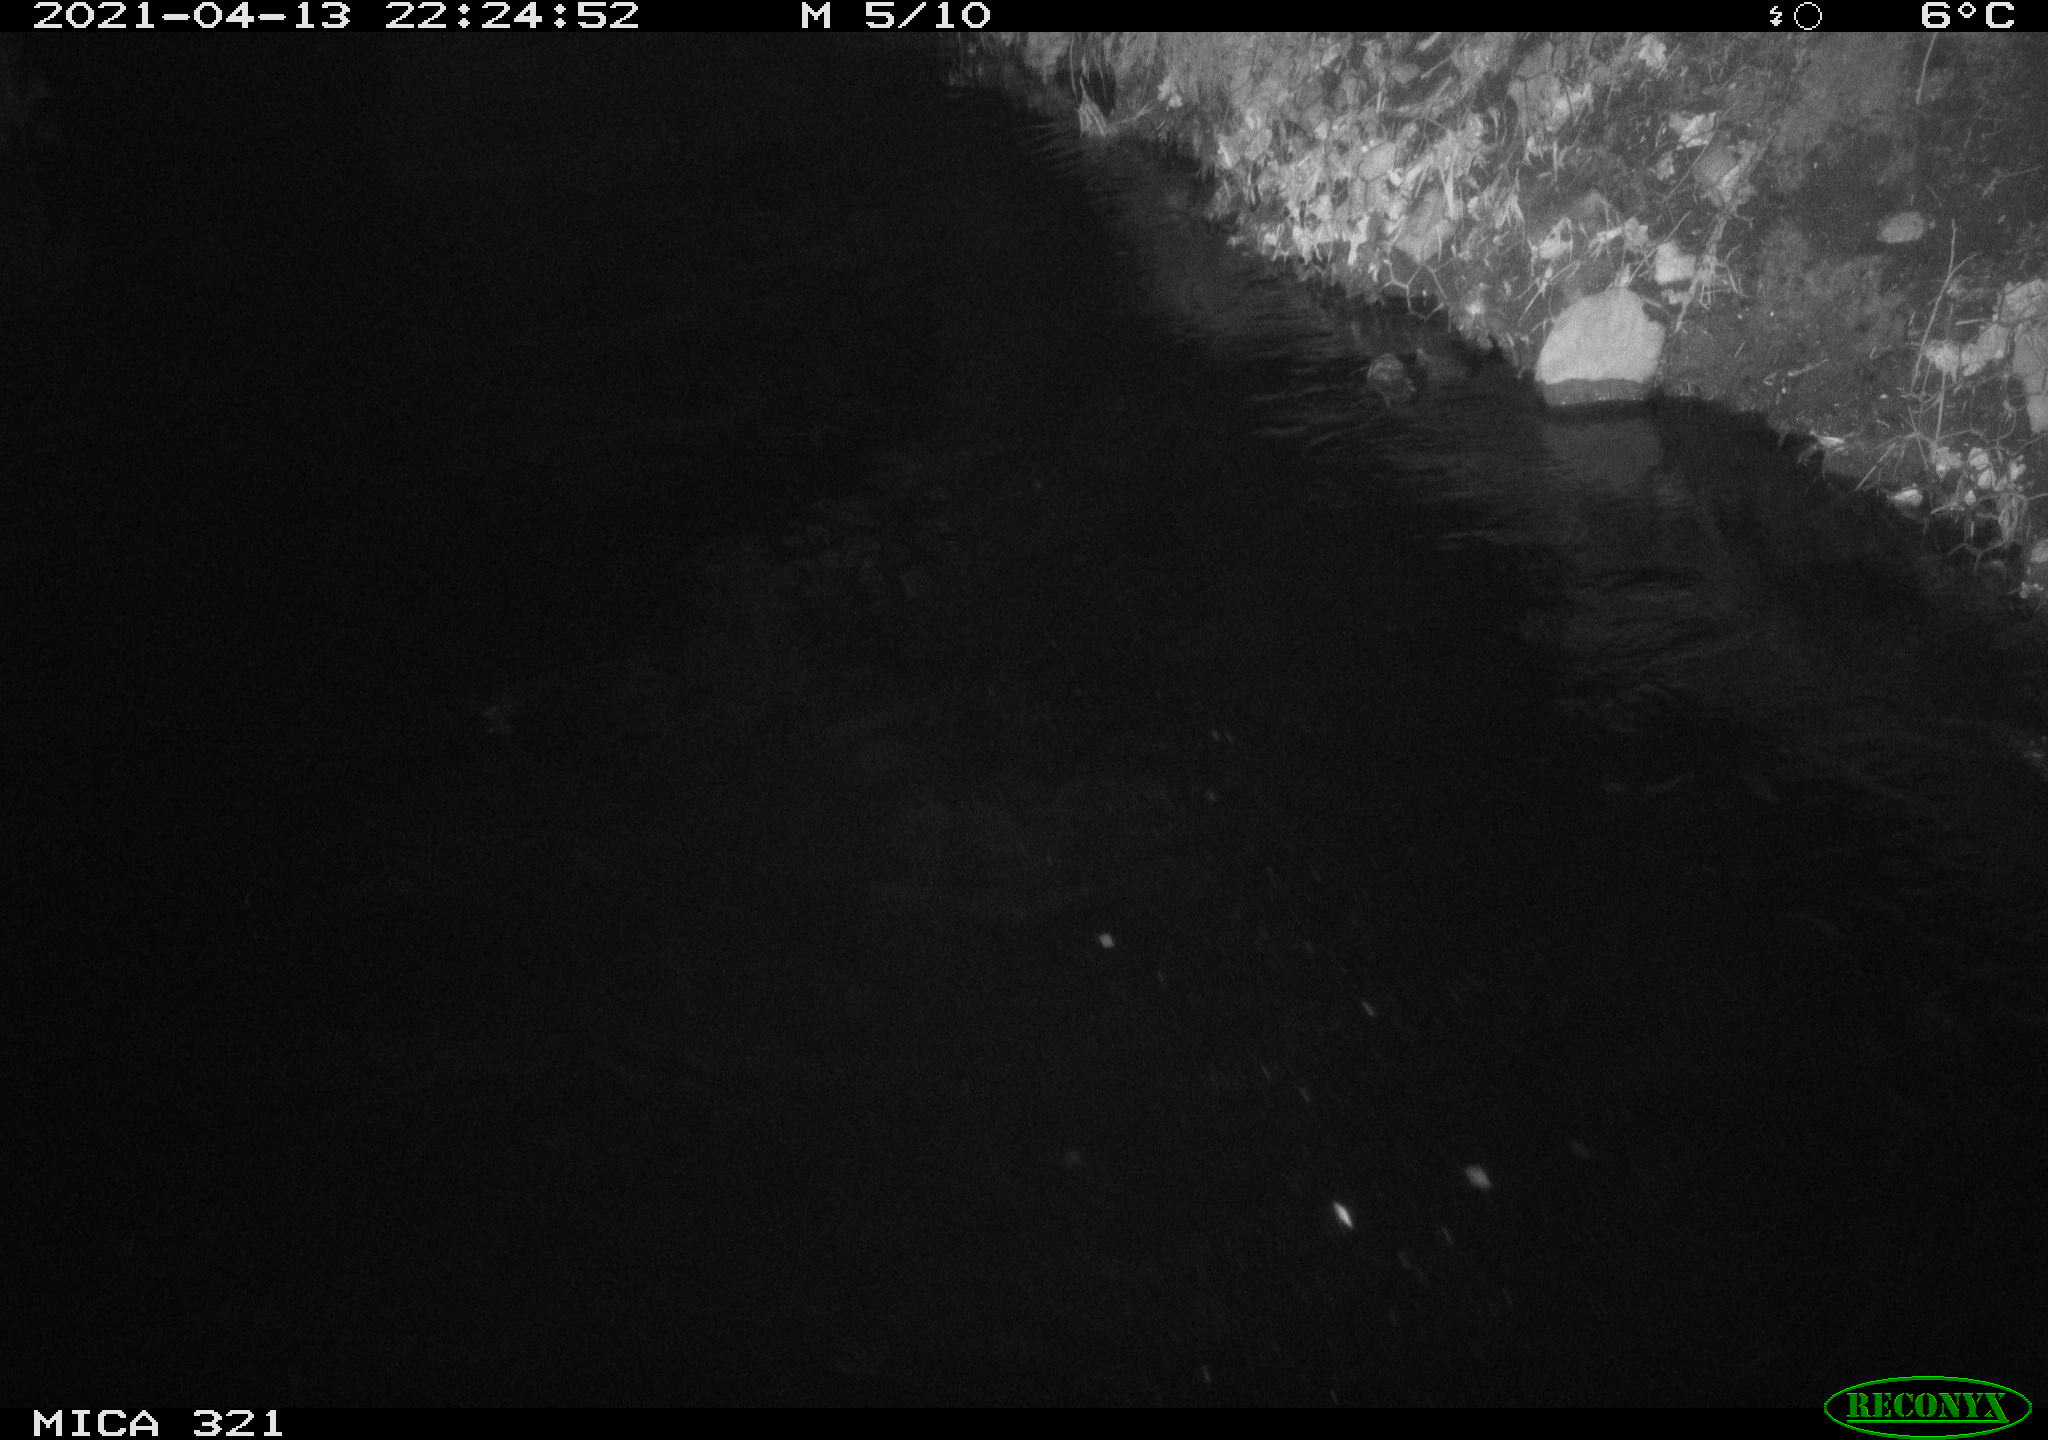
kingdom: Animalia
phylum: Chordata
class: Mammalia
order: Rodentia
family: Muridae
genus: Rattus
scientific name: Rattus norvegicus
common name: Brown rat
